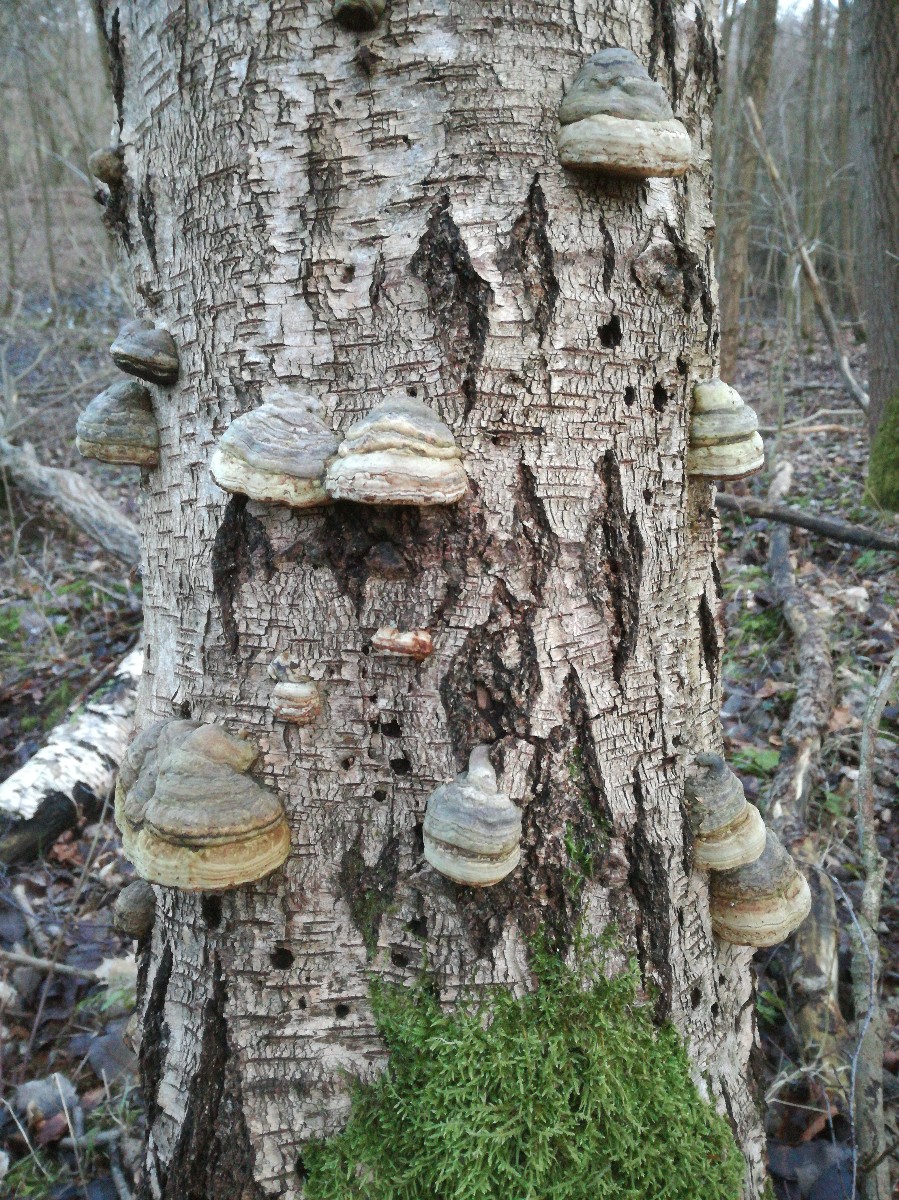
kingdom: Fungi
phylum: Basidiomycota
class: Agaricomycetes
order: Polyporales
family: Polyporaceae
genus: Fomes
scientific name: Fomes fomentarius
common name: tøndersvamp
